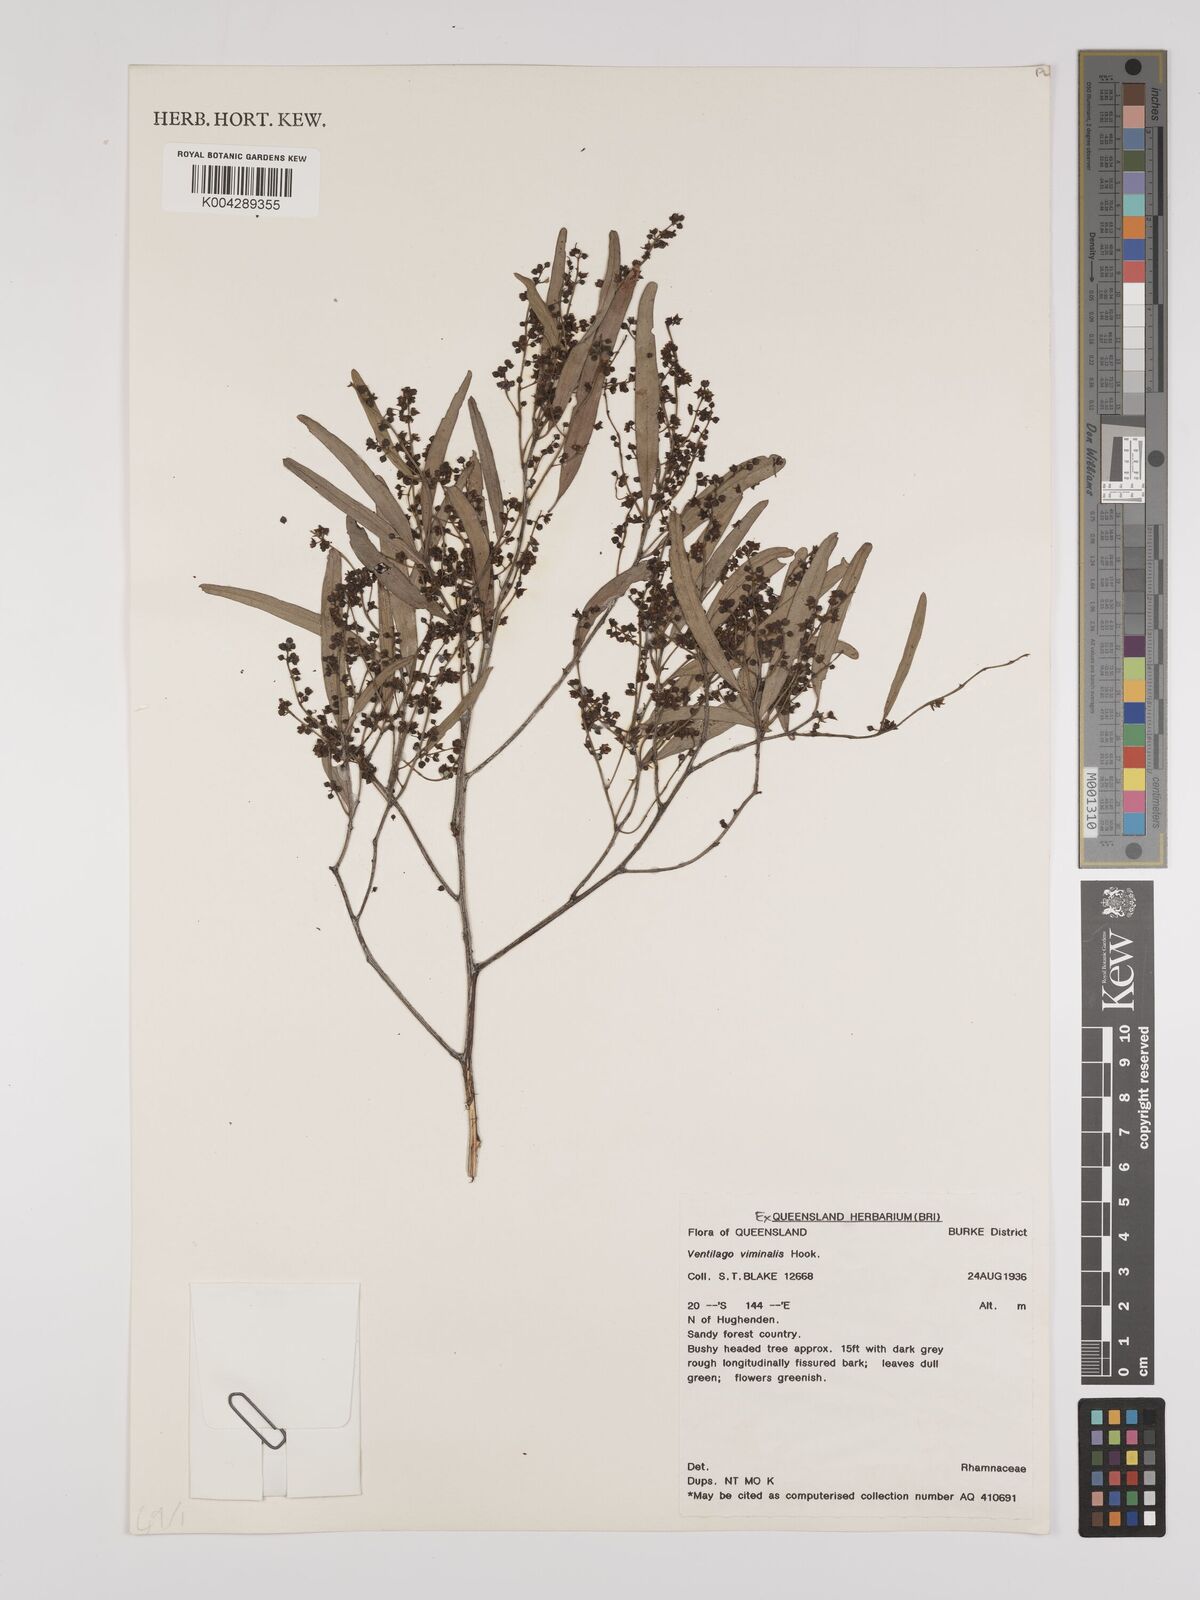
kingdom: Plantae
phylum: Tracheophyta
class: Magnoliopsida
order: Rosales
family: Rhamnaceae
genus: Ventilago
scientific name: Ventilago viminalis
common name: Medicine-bark
